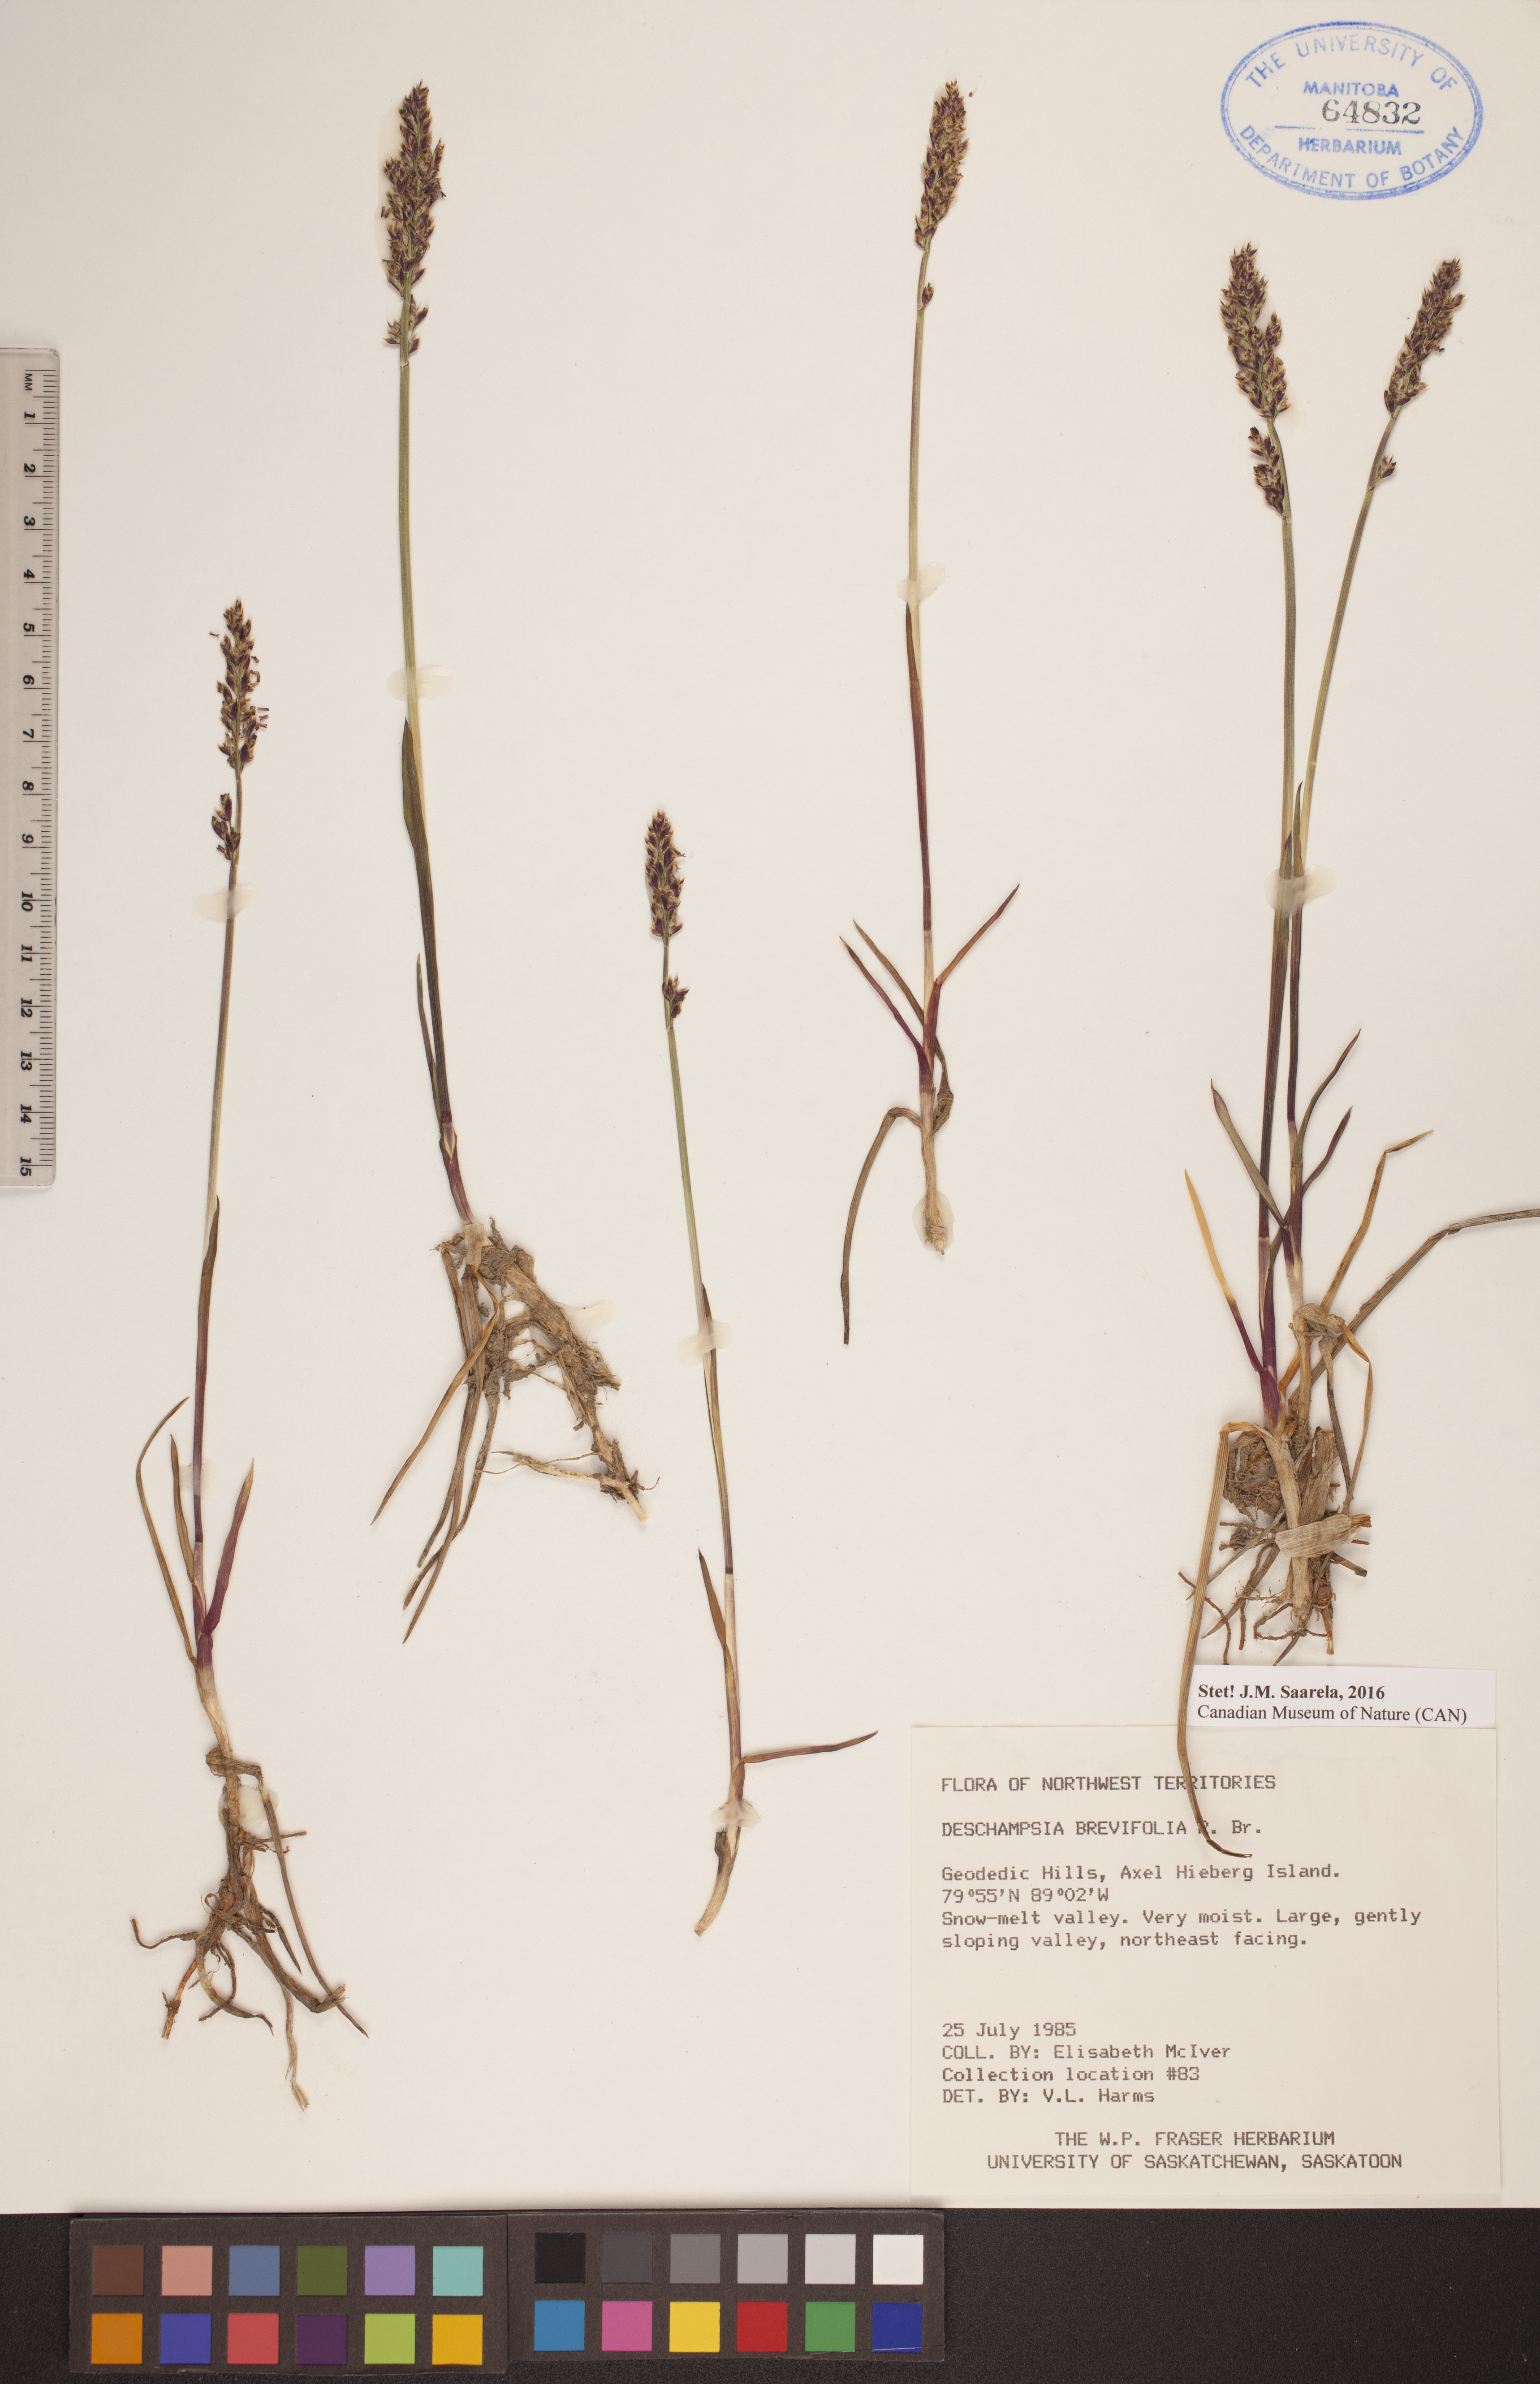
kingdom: Plantae
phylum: Tracheophyta
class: Liliopsida
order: Poales
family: Poaceae
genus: Deschampsia
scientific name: Deschampsia cespitosa
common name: Tufted hair-grass
